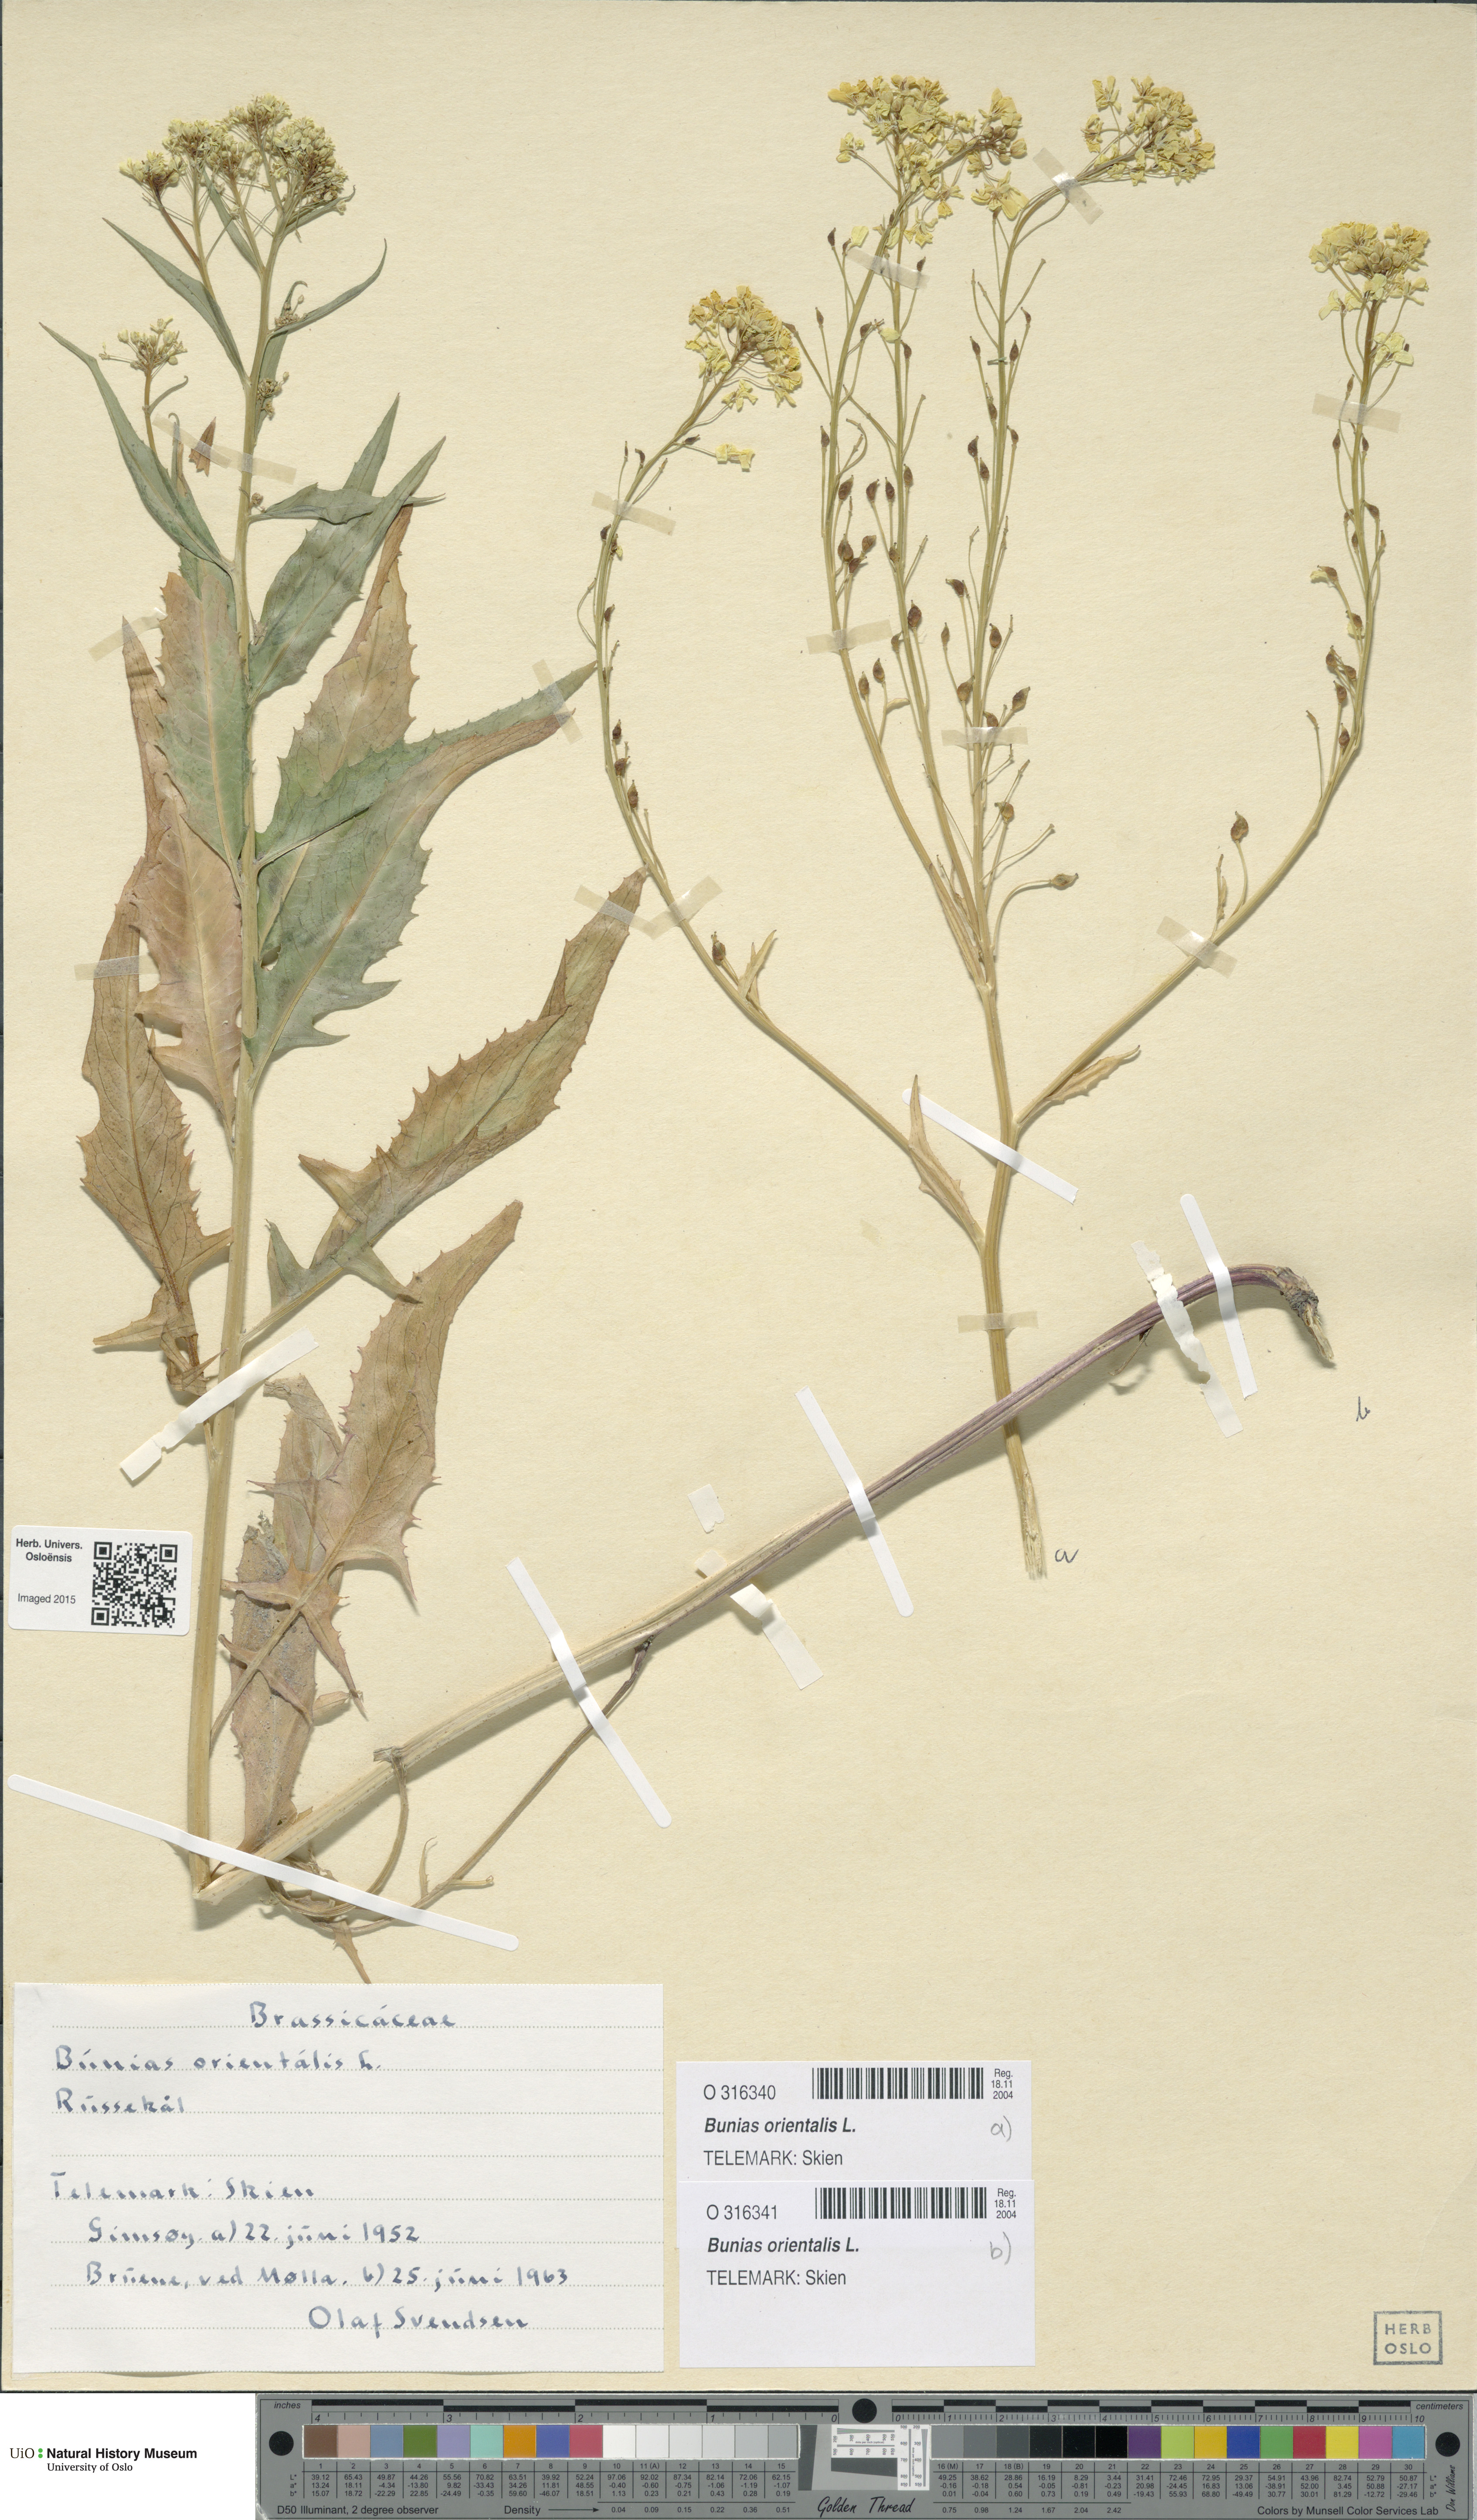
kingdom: Plantae
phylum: Tracheophyta
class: Magnoliopsida
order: Brassicales
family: Brassicaceae
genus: Bunias
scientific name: Bunias orientalis
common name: Warty-cabbage
